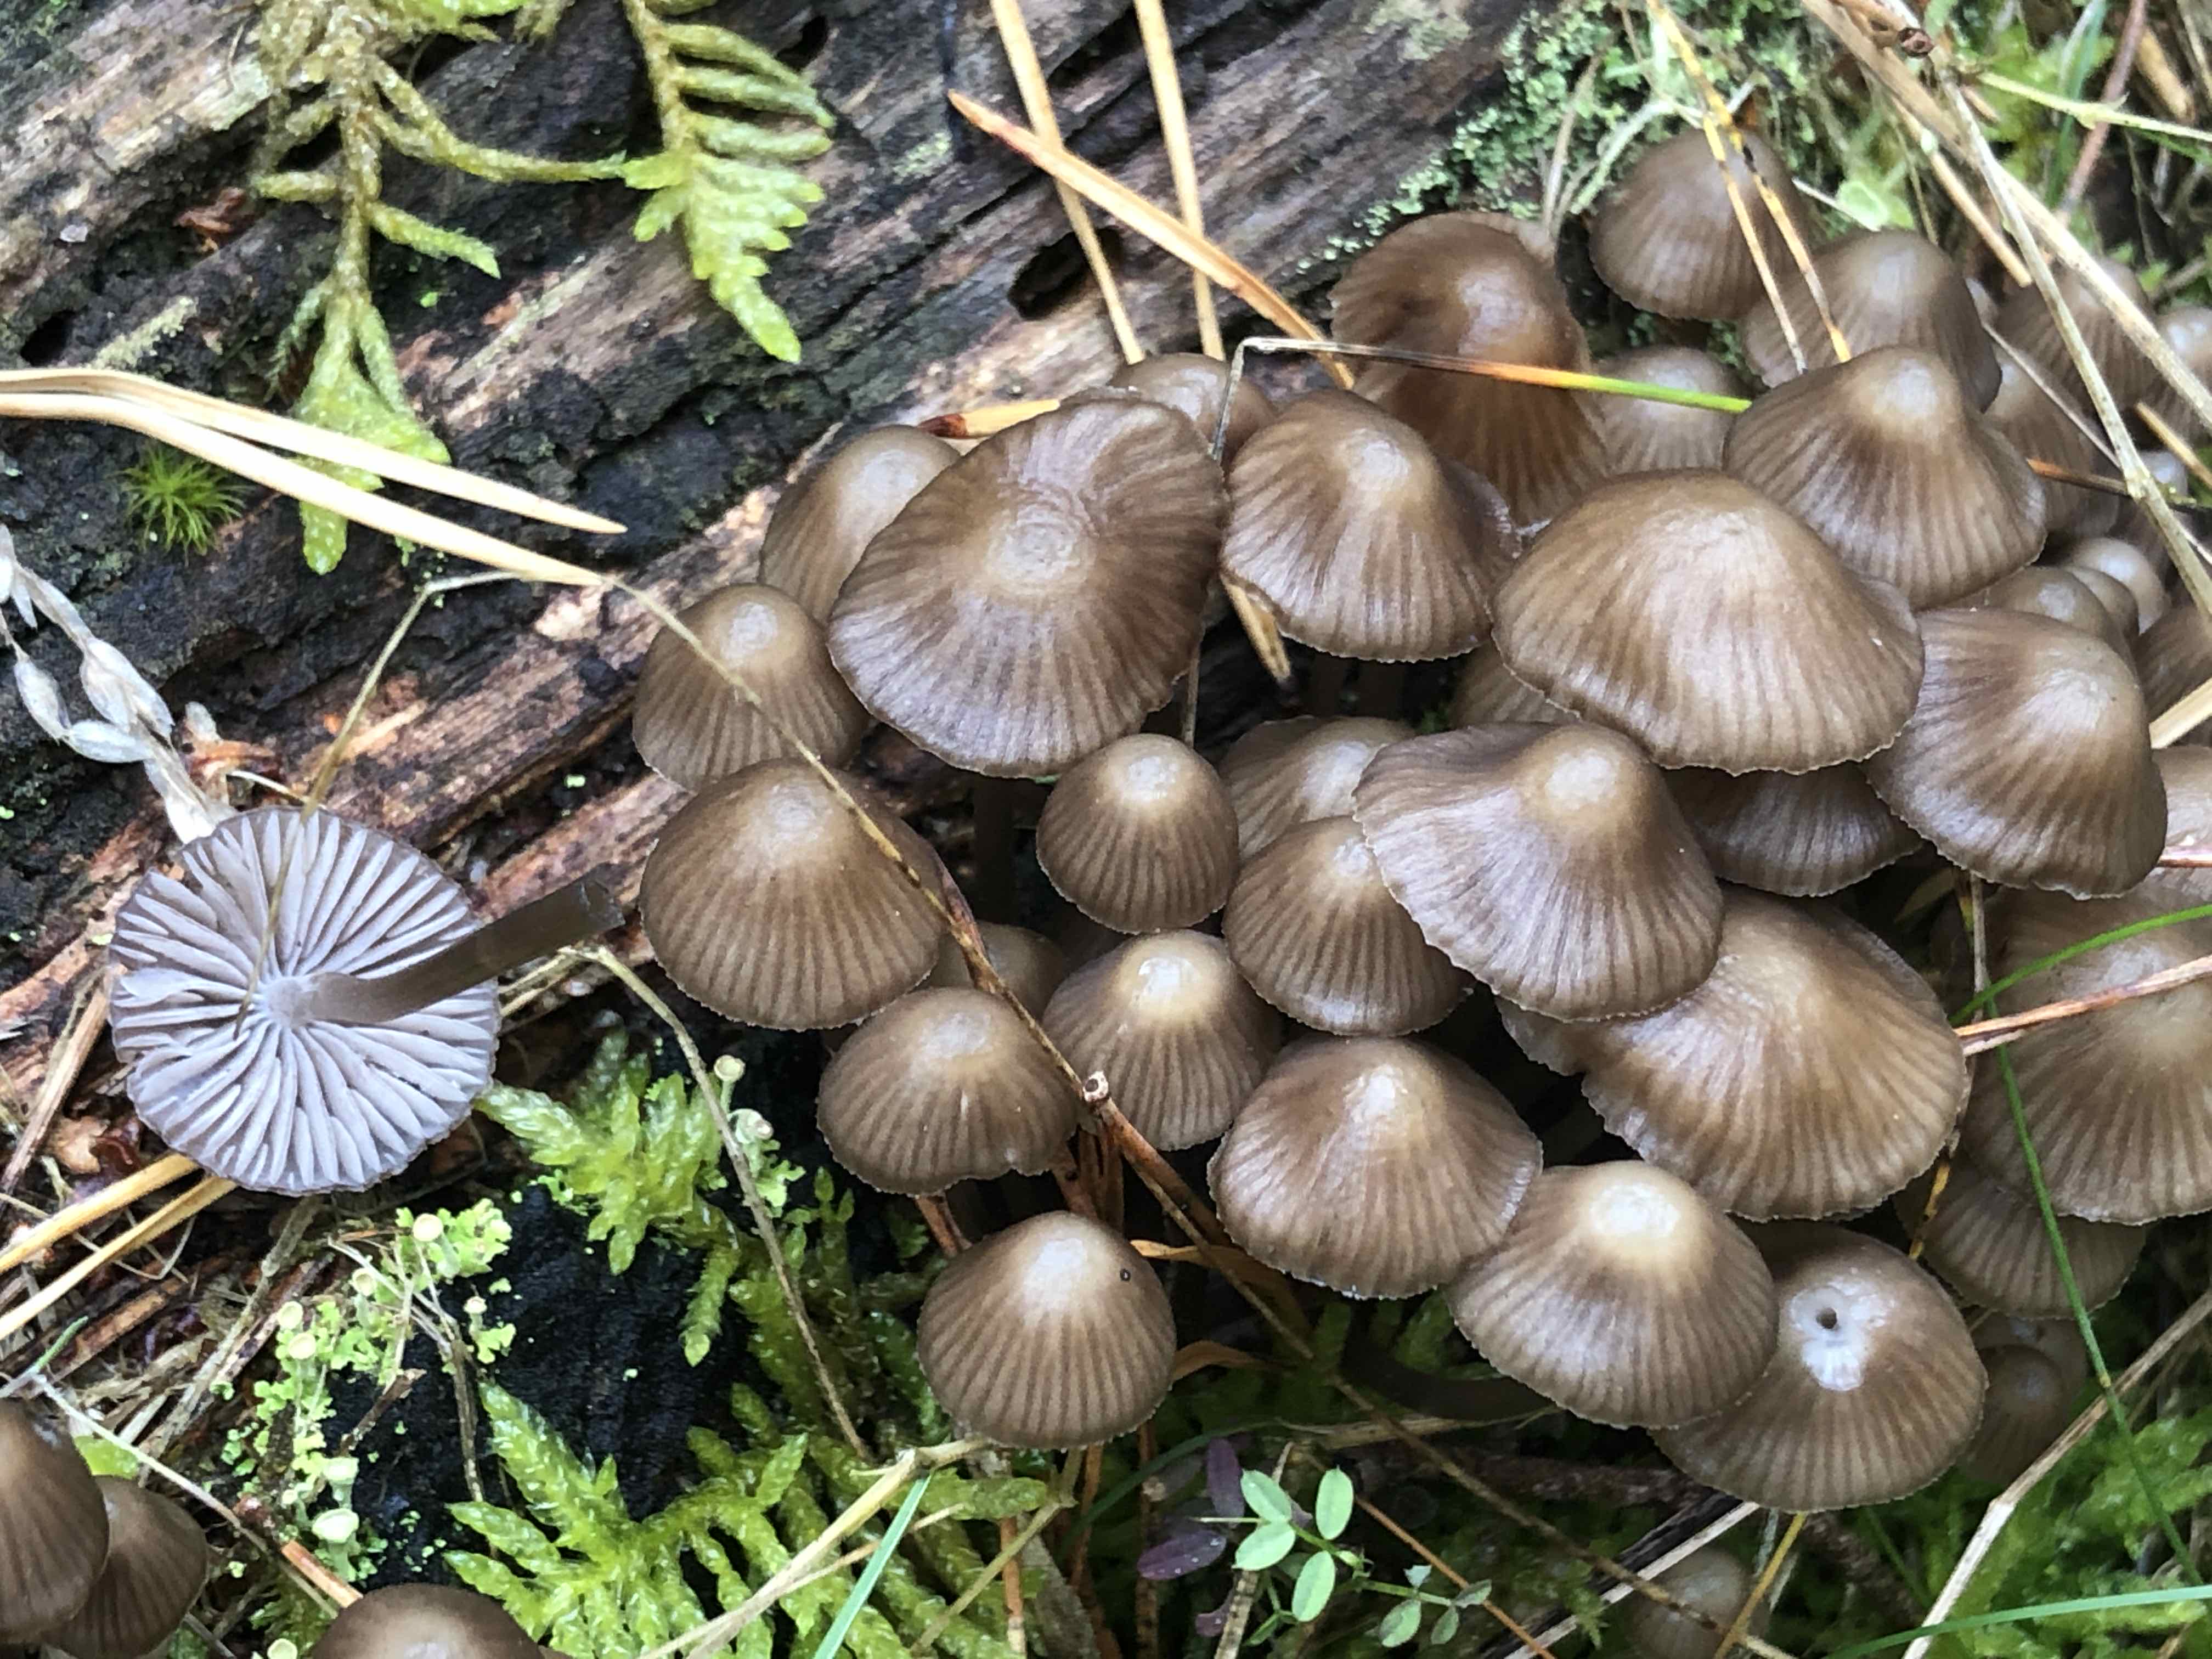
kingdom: Fungi
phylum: Basidiomycota
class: Agaricomycetes
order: Agaricales
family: Mycenaceae
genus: Mycena
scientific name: Mycena stipata
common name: stinkende huesvamp
